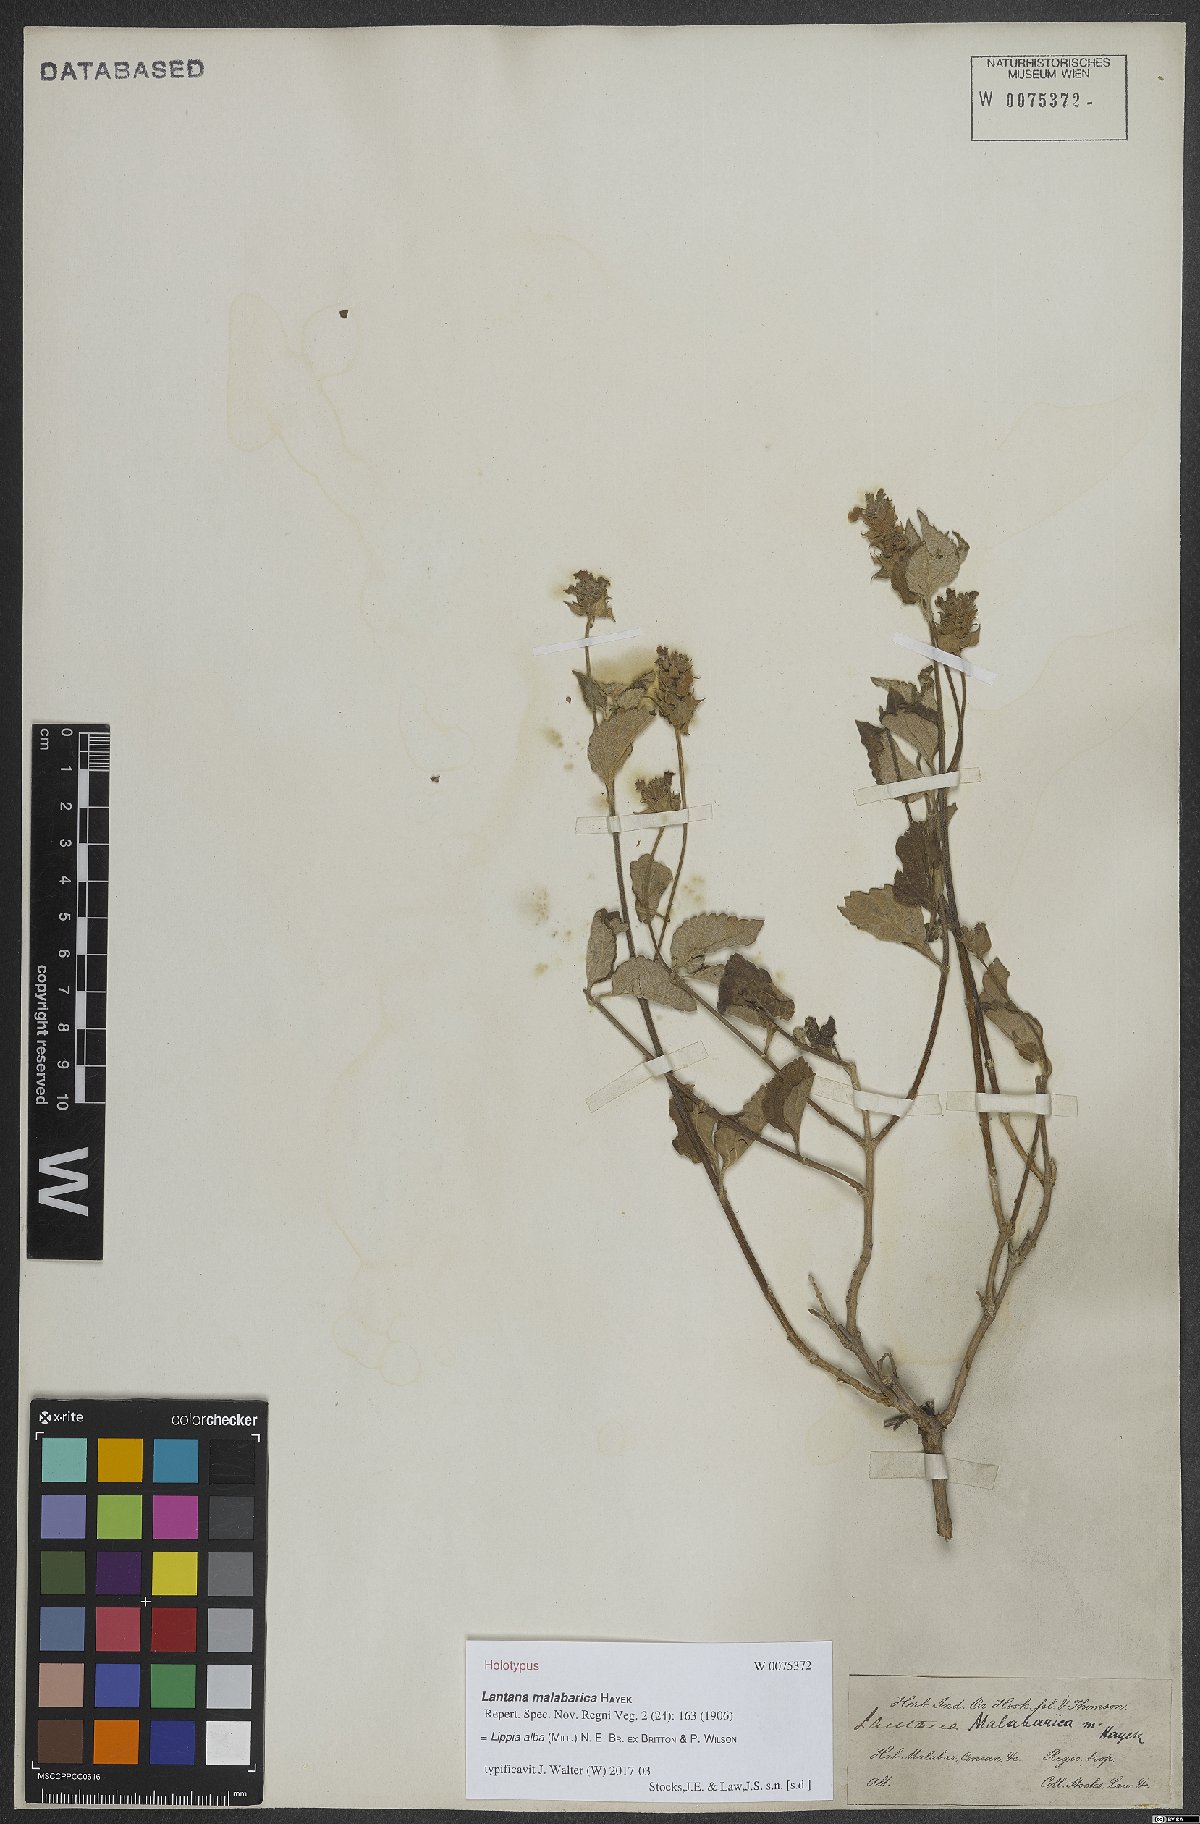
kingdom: Plantae
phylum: Tracheophyta
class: Magnoliopsida
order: Lamiales
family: Verbenaceae
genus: Lippia
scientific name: Lippia alba
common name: Bushy matgrass
